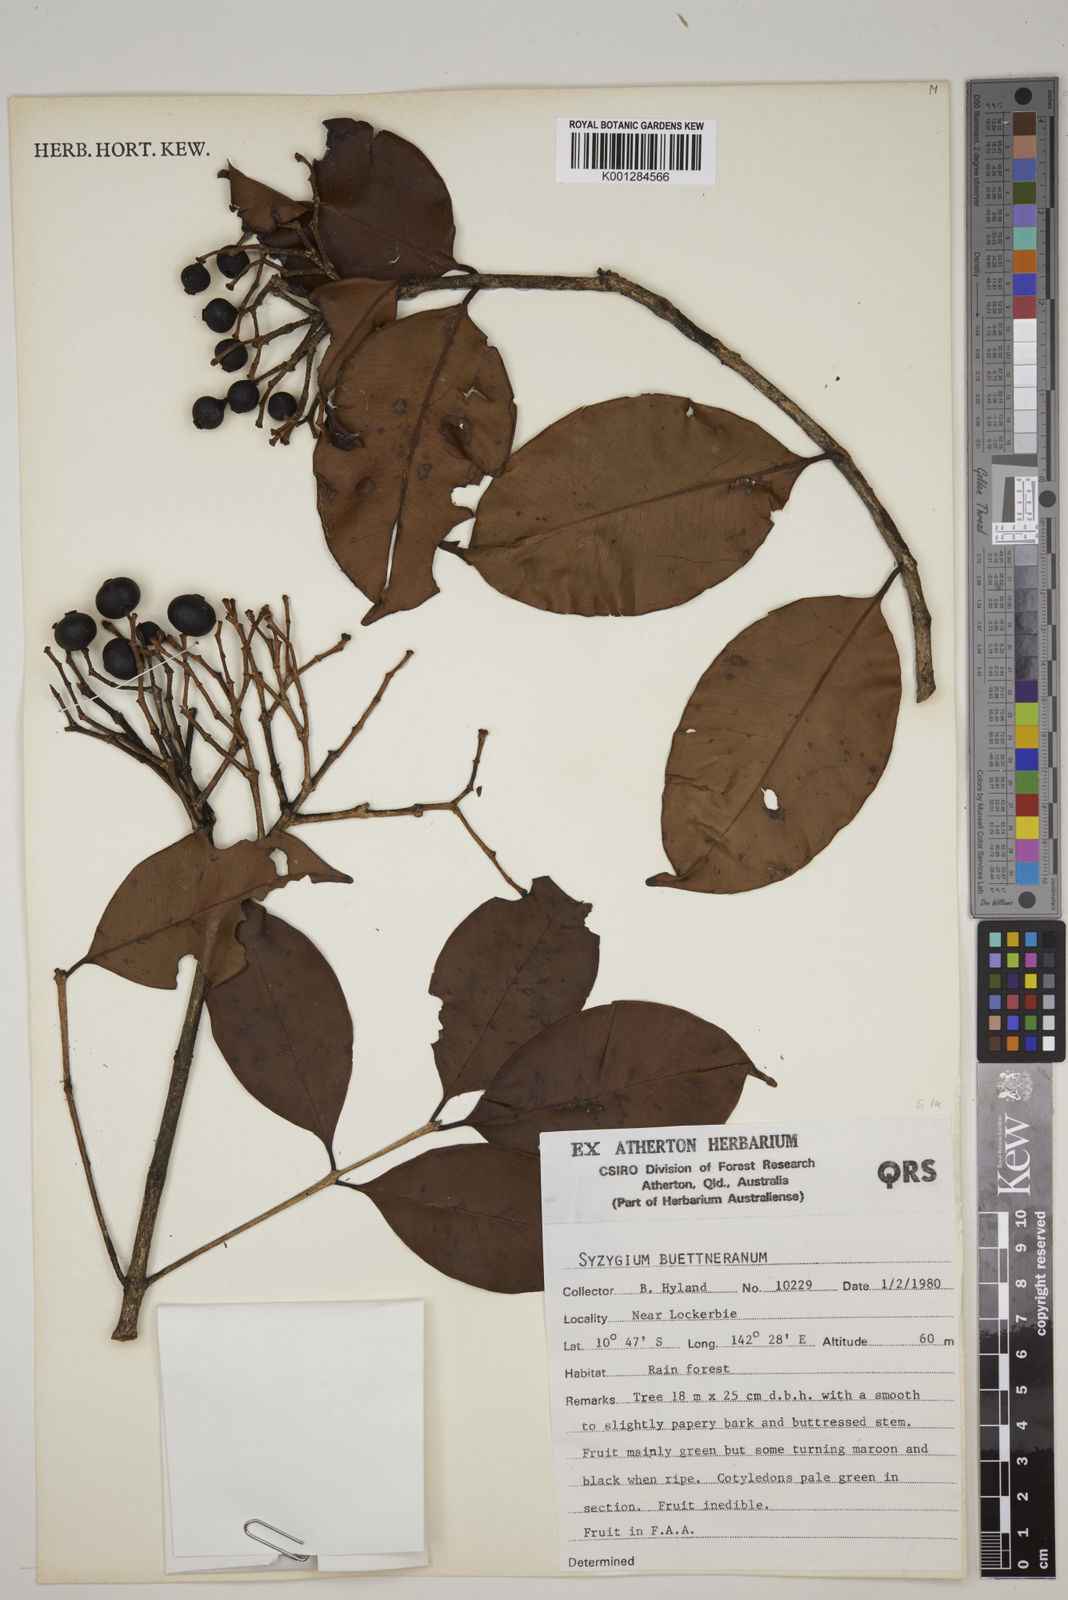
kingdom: Plantae
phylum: Tracheophyta
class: Magnoliopsida
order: Myrtales
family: Myrtaceae
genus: Syzygium
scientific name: Syzygium buettnerianum
